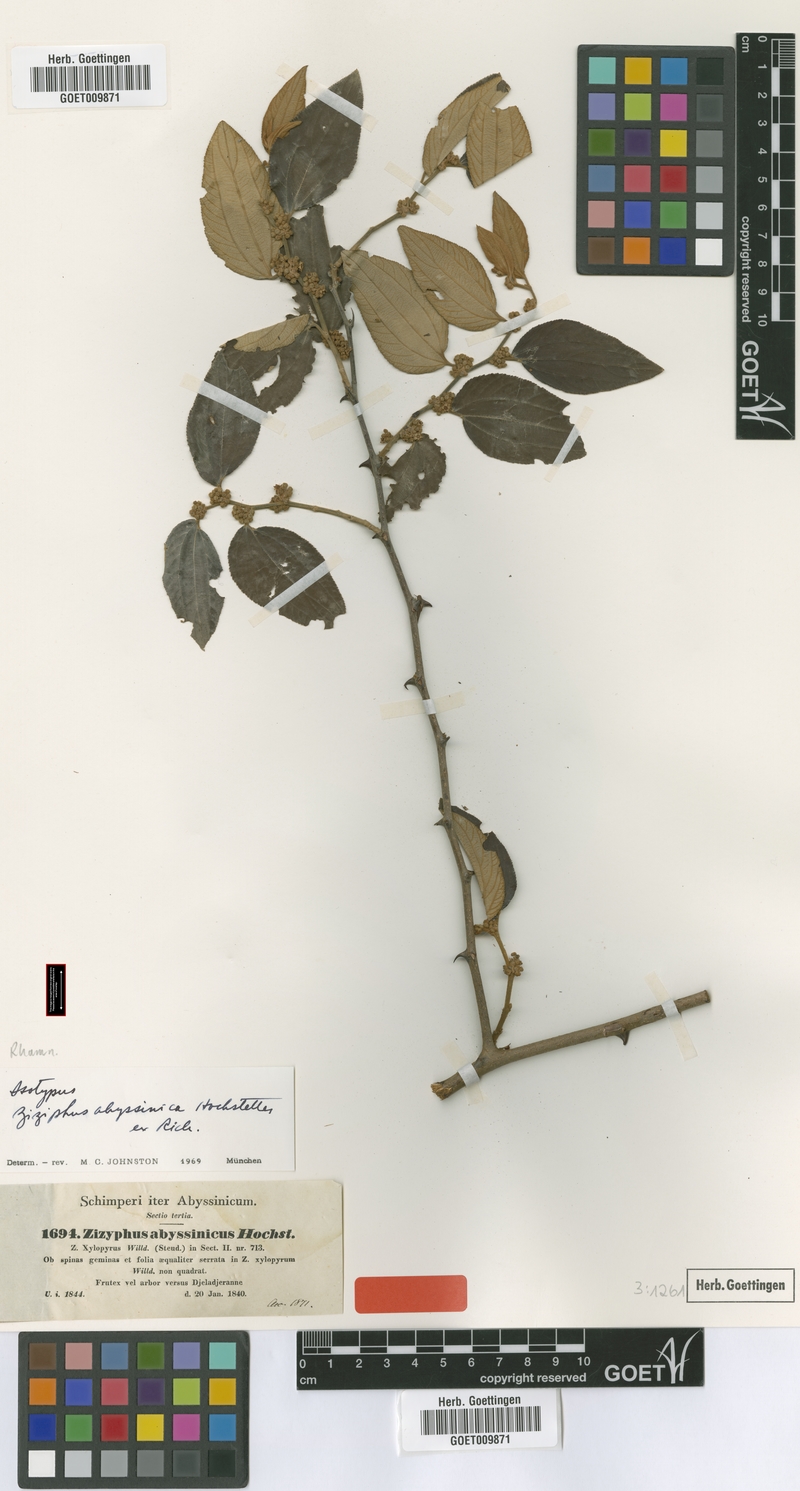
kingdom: Plantae
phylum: Tracheophyta
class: Magnoliopsida
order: Rosales
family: Rhamnaceae
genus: Ziziphus
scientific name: Ziziphus abyssinica
